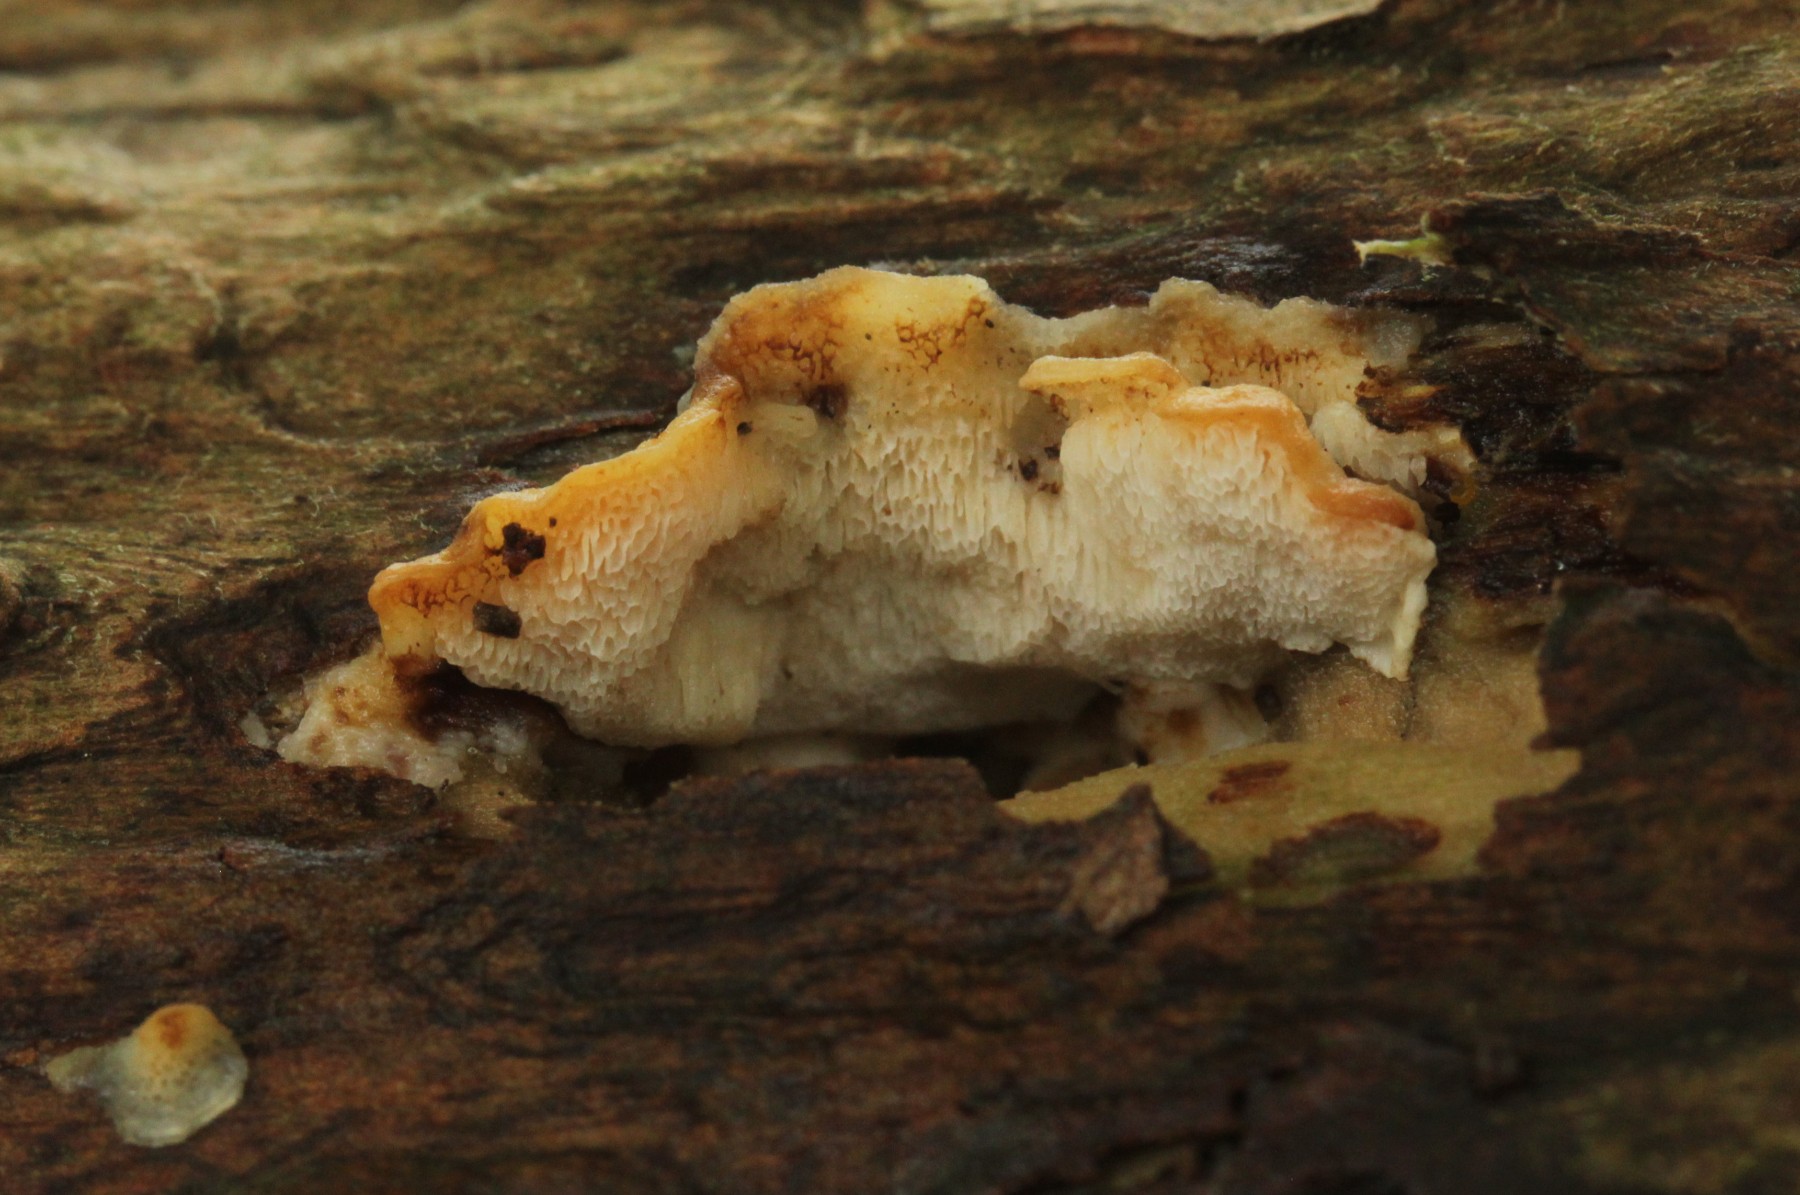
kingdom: Fungi
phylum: Basidiomycota
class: Agaricomycetes
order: Polyporales
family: Steccherinaceae
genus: Antrodiella
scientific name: Antrodiella faginea
